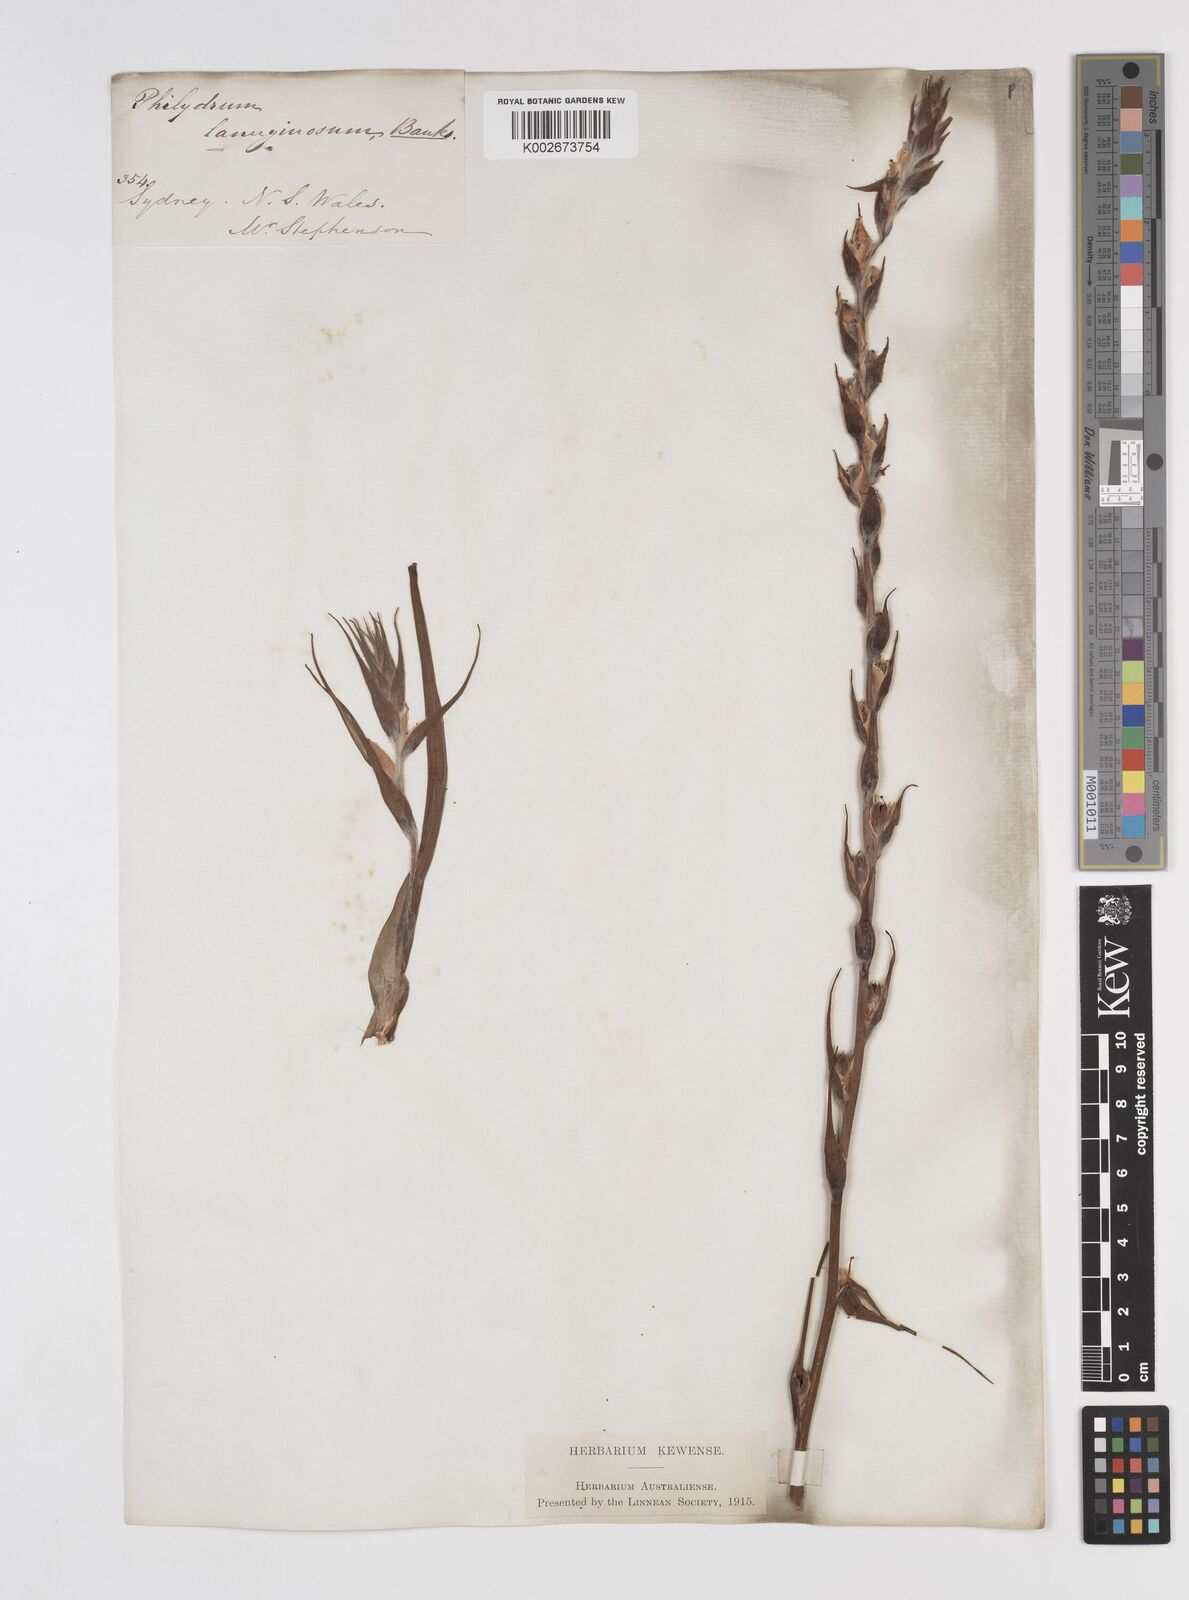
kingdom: Plantae
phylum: Tracheophyta
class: Liliopsida
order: Commelinales
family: Philydraceae
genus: Philydrum
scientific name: Philydrum lanuginosum
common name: Woolly frog's mouth
